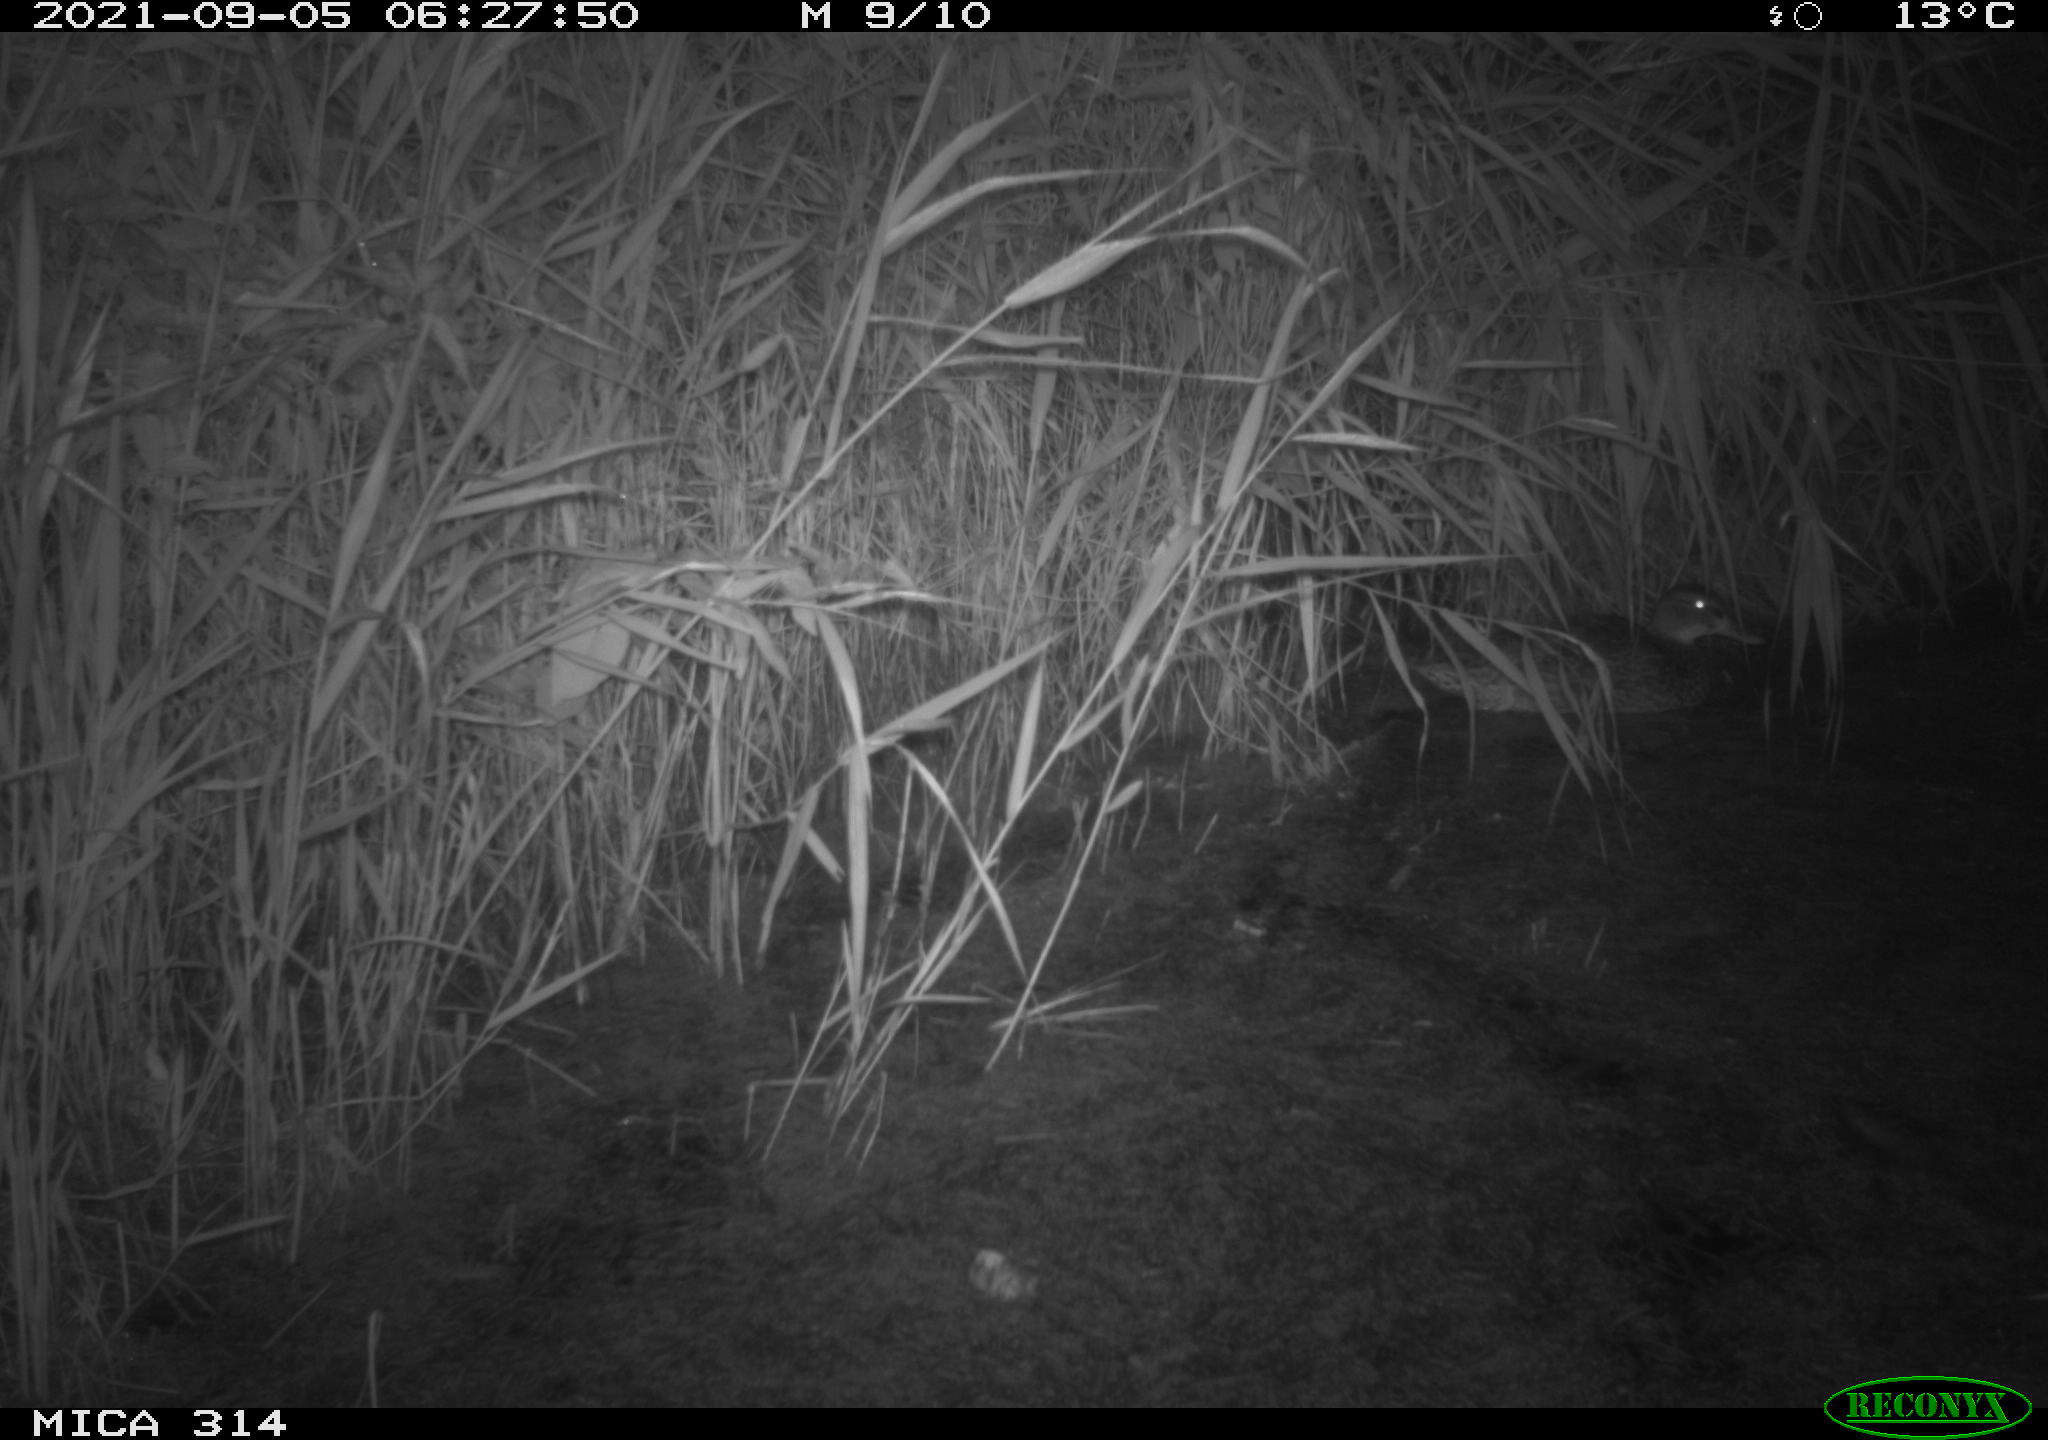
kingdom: Animalia
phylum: Chordata
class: Aves
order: Anseriformes
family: Anatidae
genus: Anas
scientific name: Anas platyrhynchos
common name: Mallard
